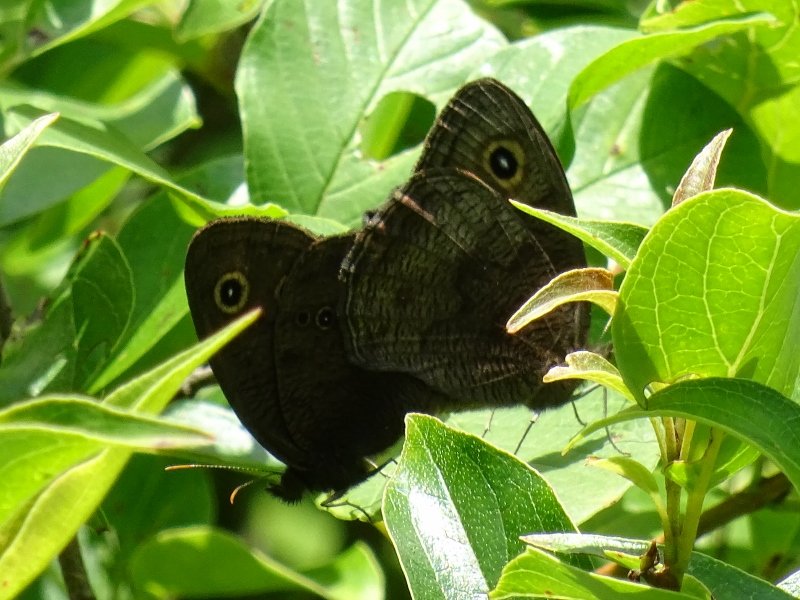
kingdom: Animalia
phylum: Arthropoda
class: Insecta
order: Lepidoptera
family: Nymphalidae
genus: Cercyonis
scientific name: Cercyonis pegala
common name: Common Wood-Nymph
